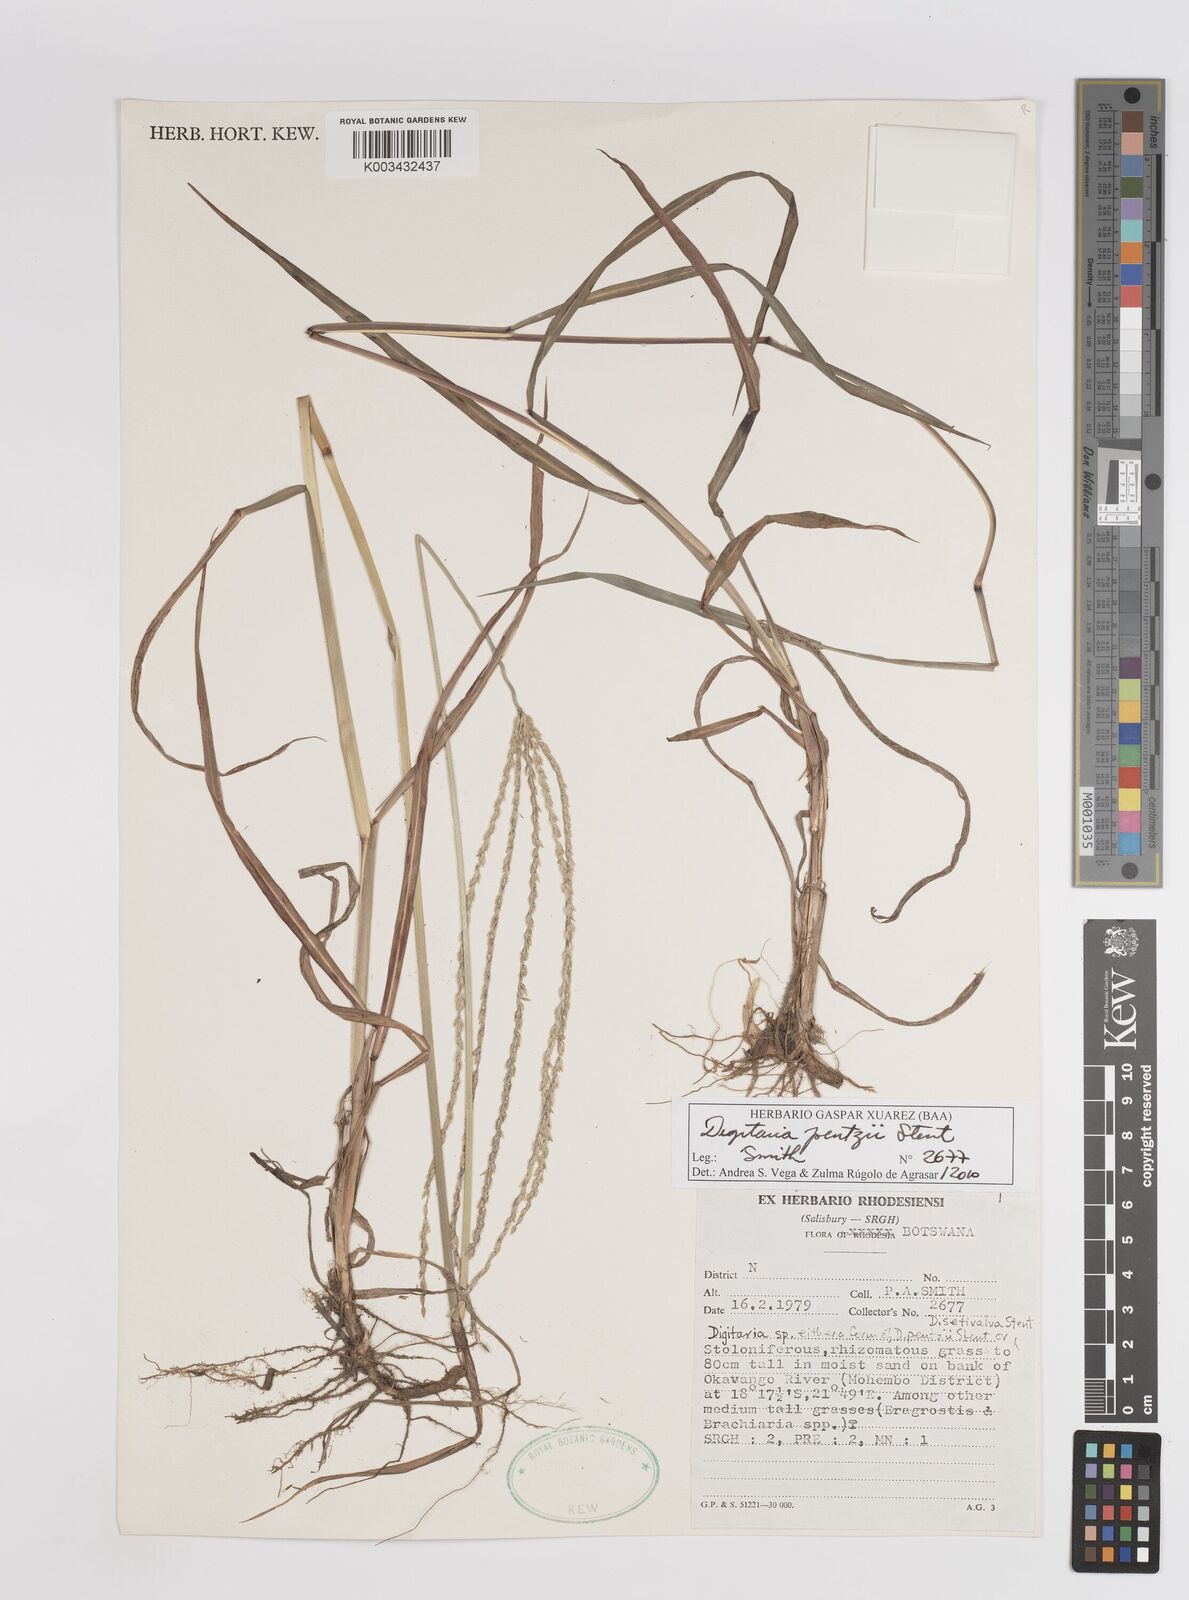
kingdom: Plantae
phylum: Tracheophyta
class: Liliopsida
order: Poales
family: Poaceae
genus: Digitaria
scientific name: Digitaria eriantha
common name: Digitgrass
